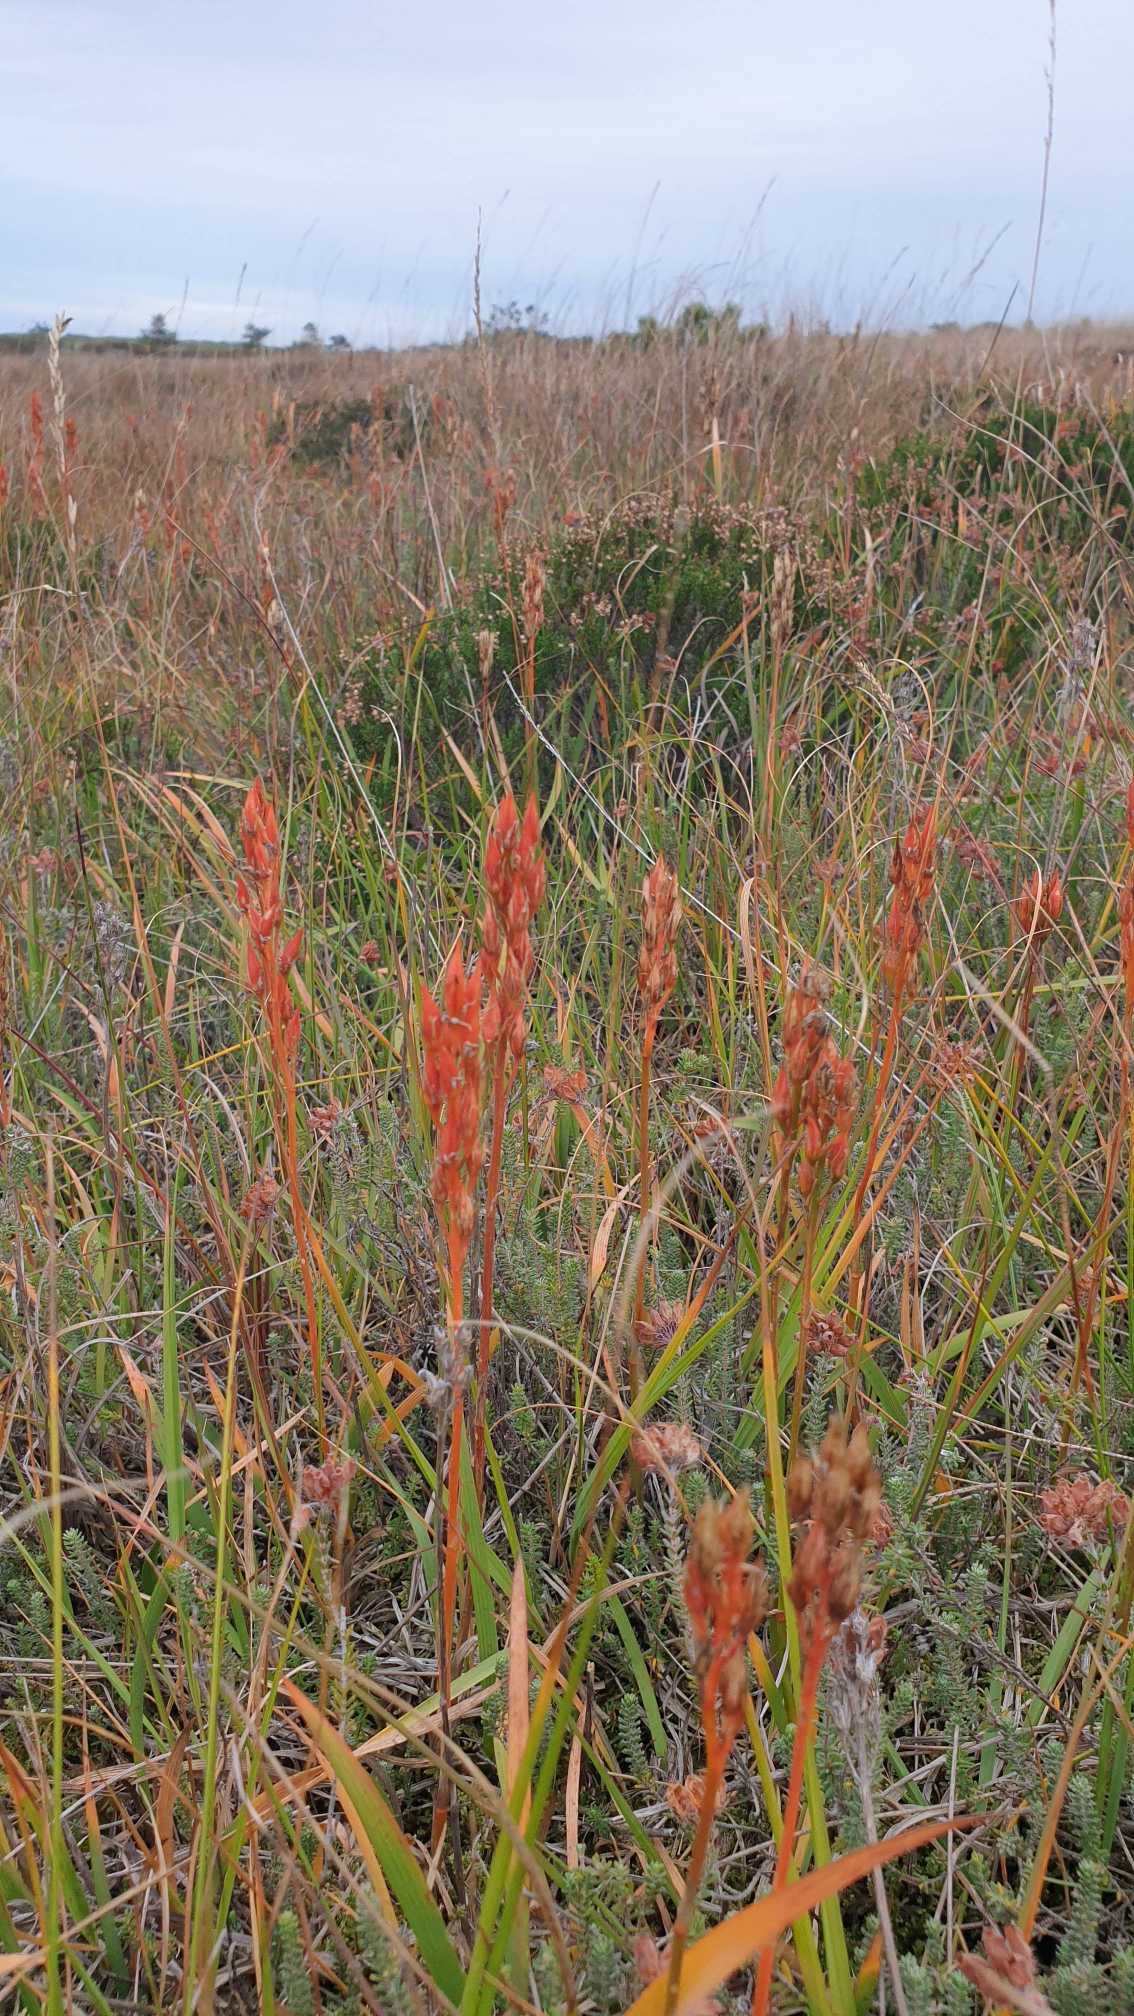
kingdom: Plantae
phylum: Tracheophyta
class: Liliopsida
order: Dioscoreales
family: Nartheciaceae
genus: Narthecium
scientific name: Narthecium ossifragum
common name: Benbræk
